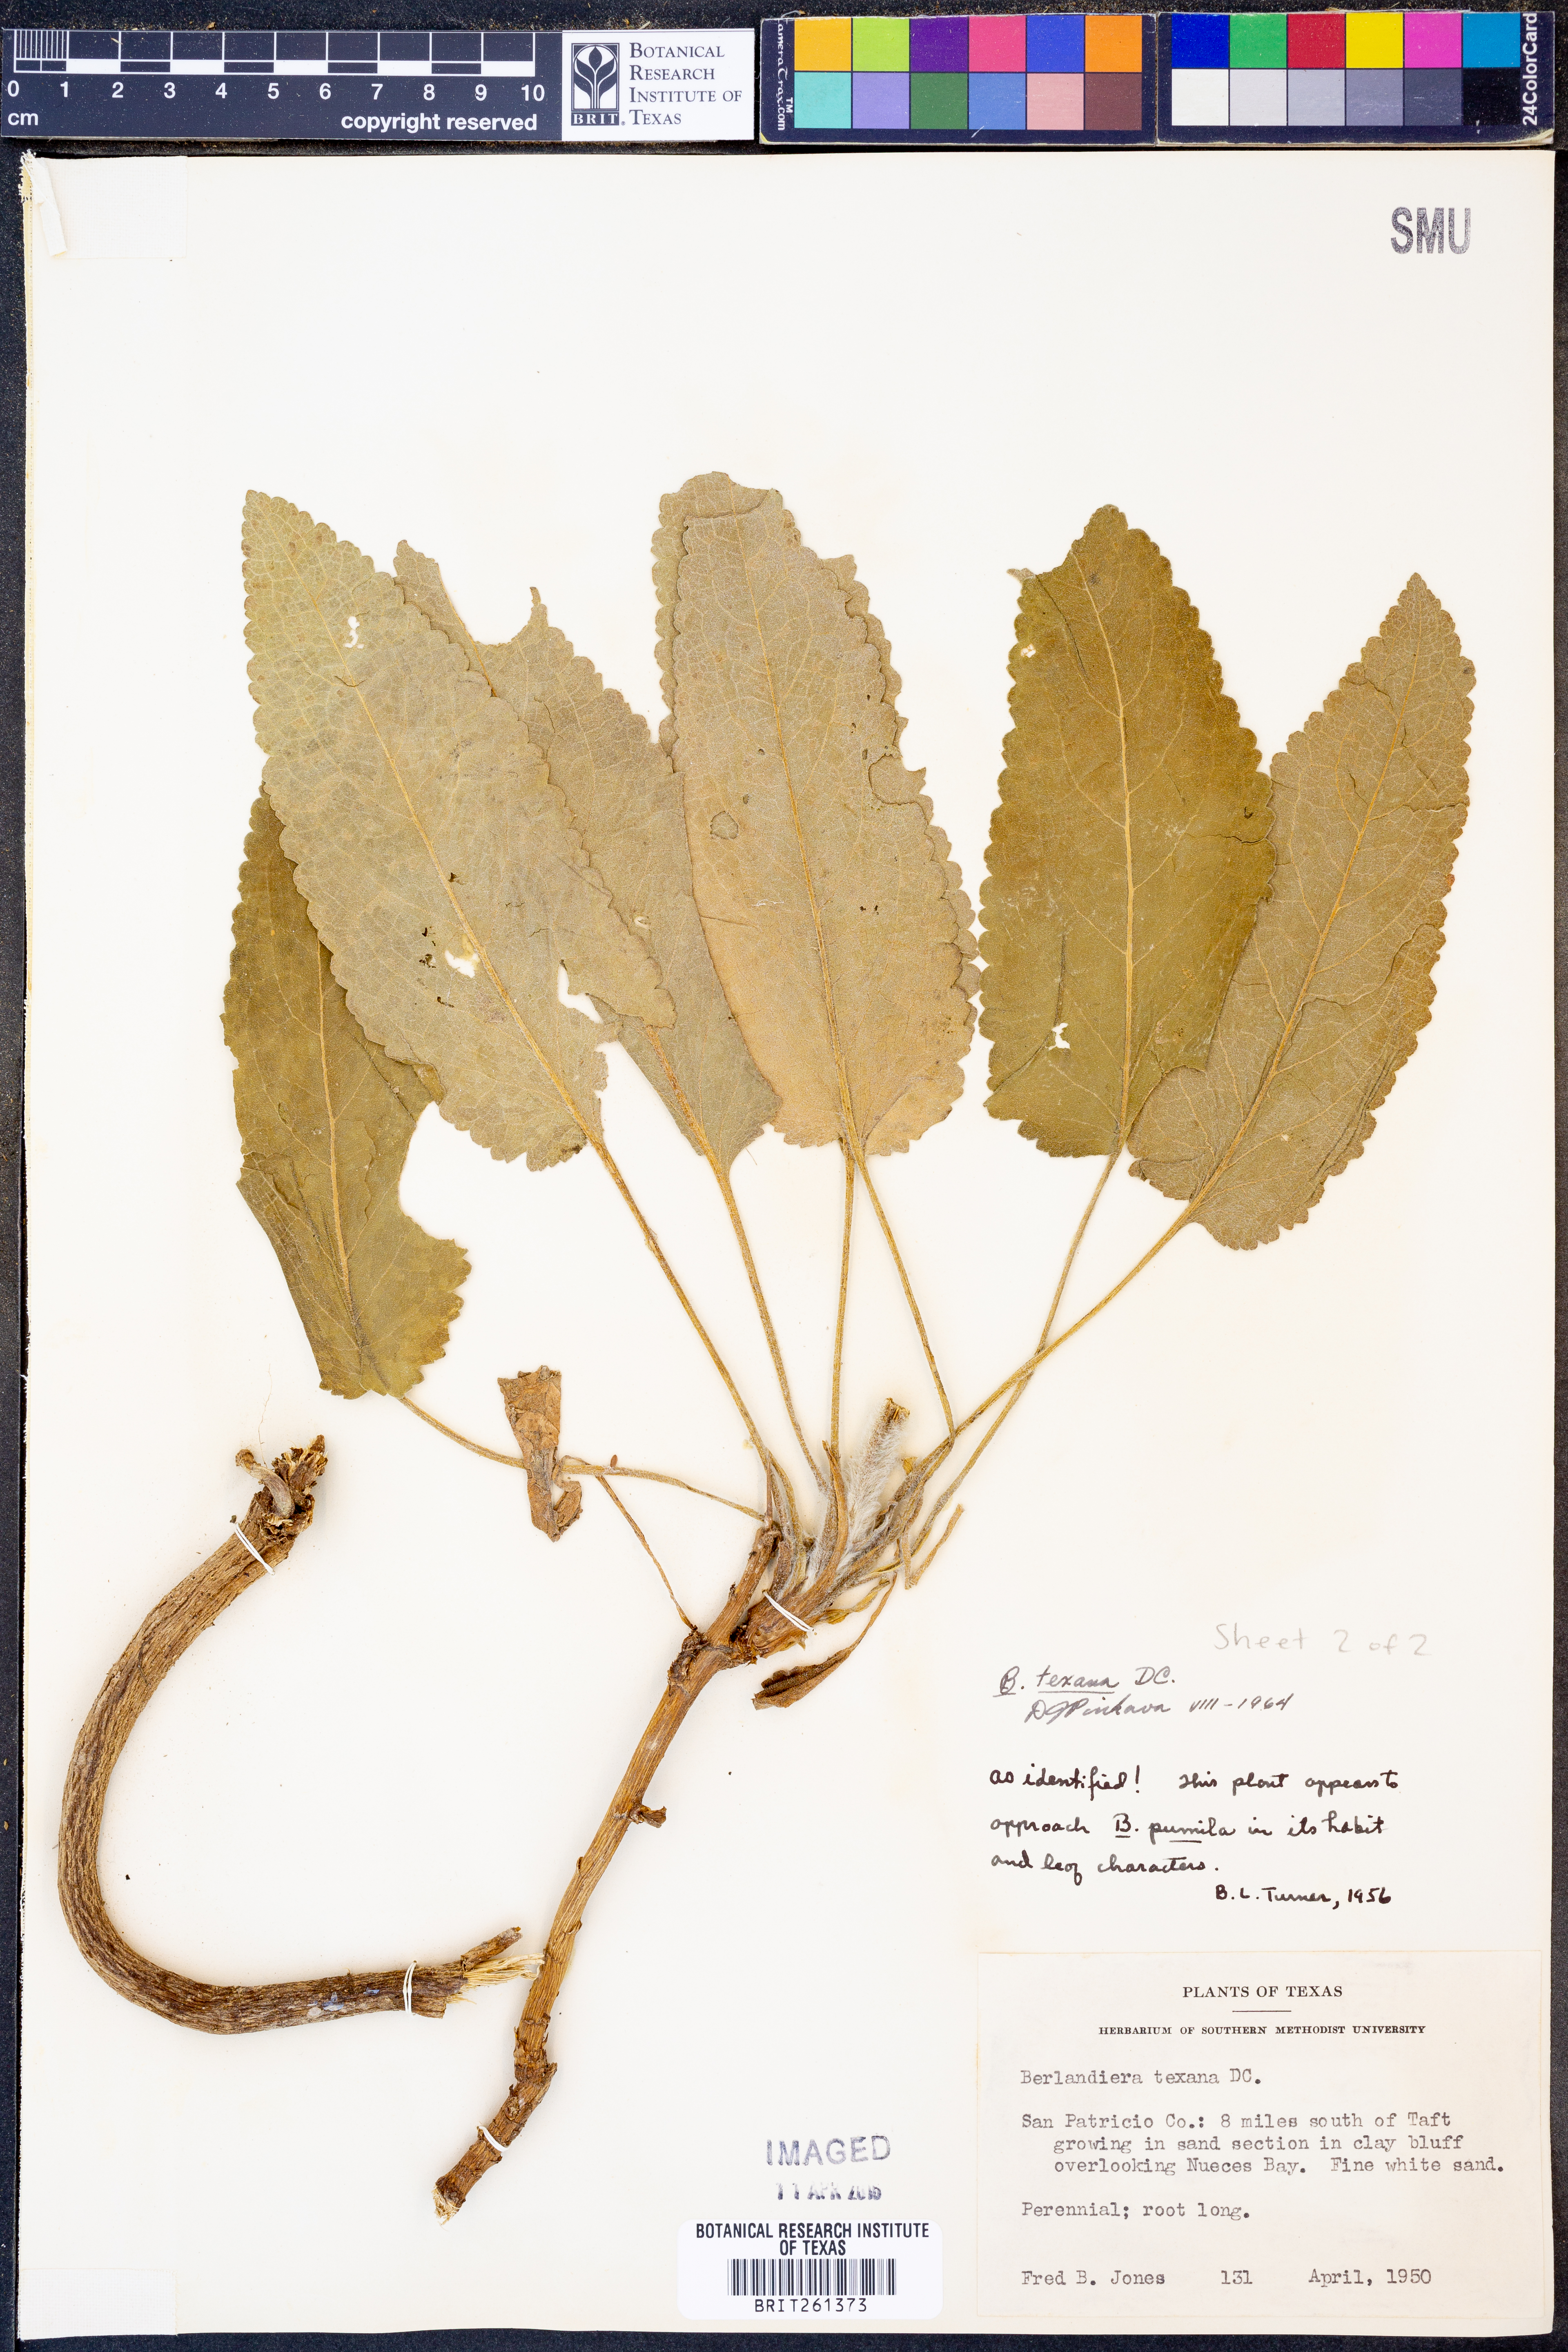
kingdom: Plantae
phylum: Tracheophyta
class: Magnoliopsida
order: Asterales
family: Asteraceae
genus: Berlandiera
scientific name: Berlandiera texana
